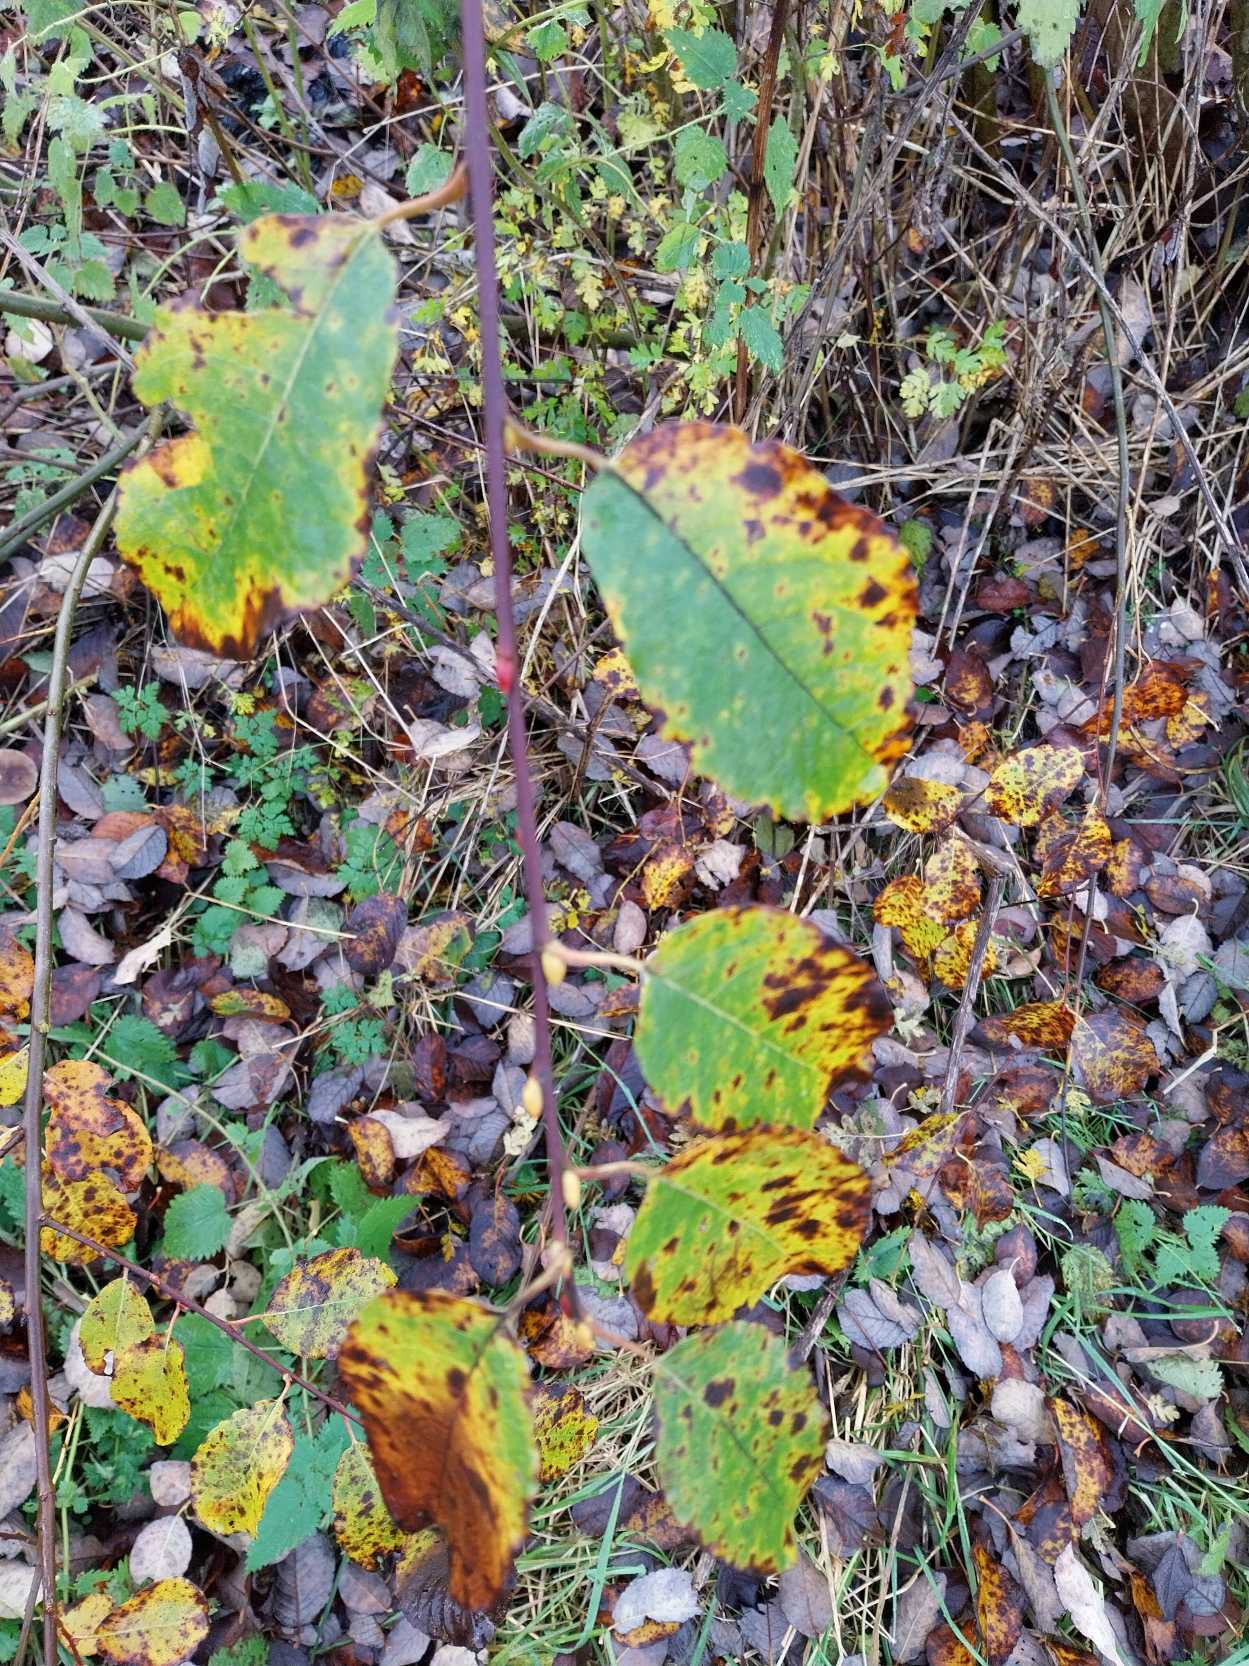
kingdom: Plantae
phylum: Tracheophyta
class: Magnoliopsida
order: Malpighiales
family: Salicaceae
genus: Salix
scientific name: Salix caprea
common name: Selje-pil
